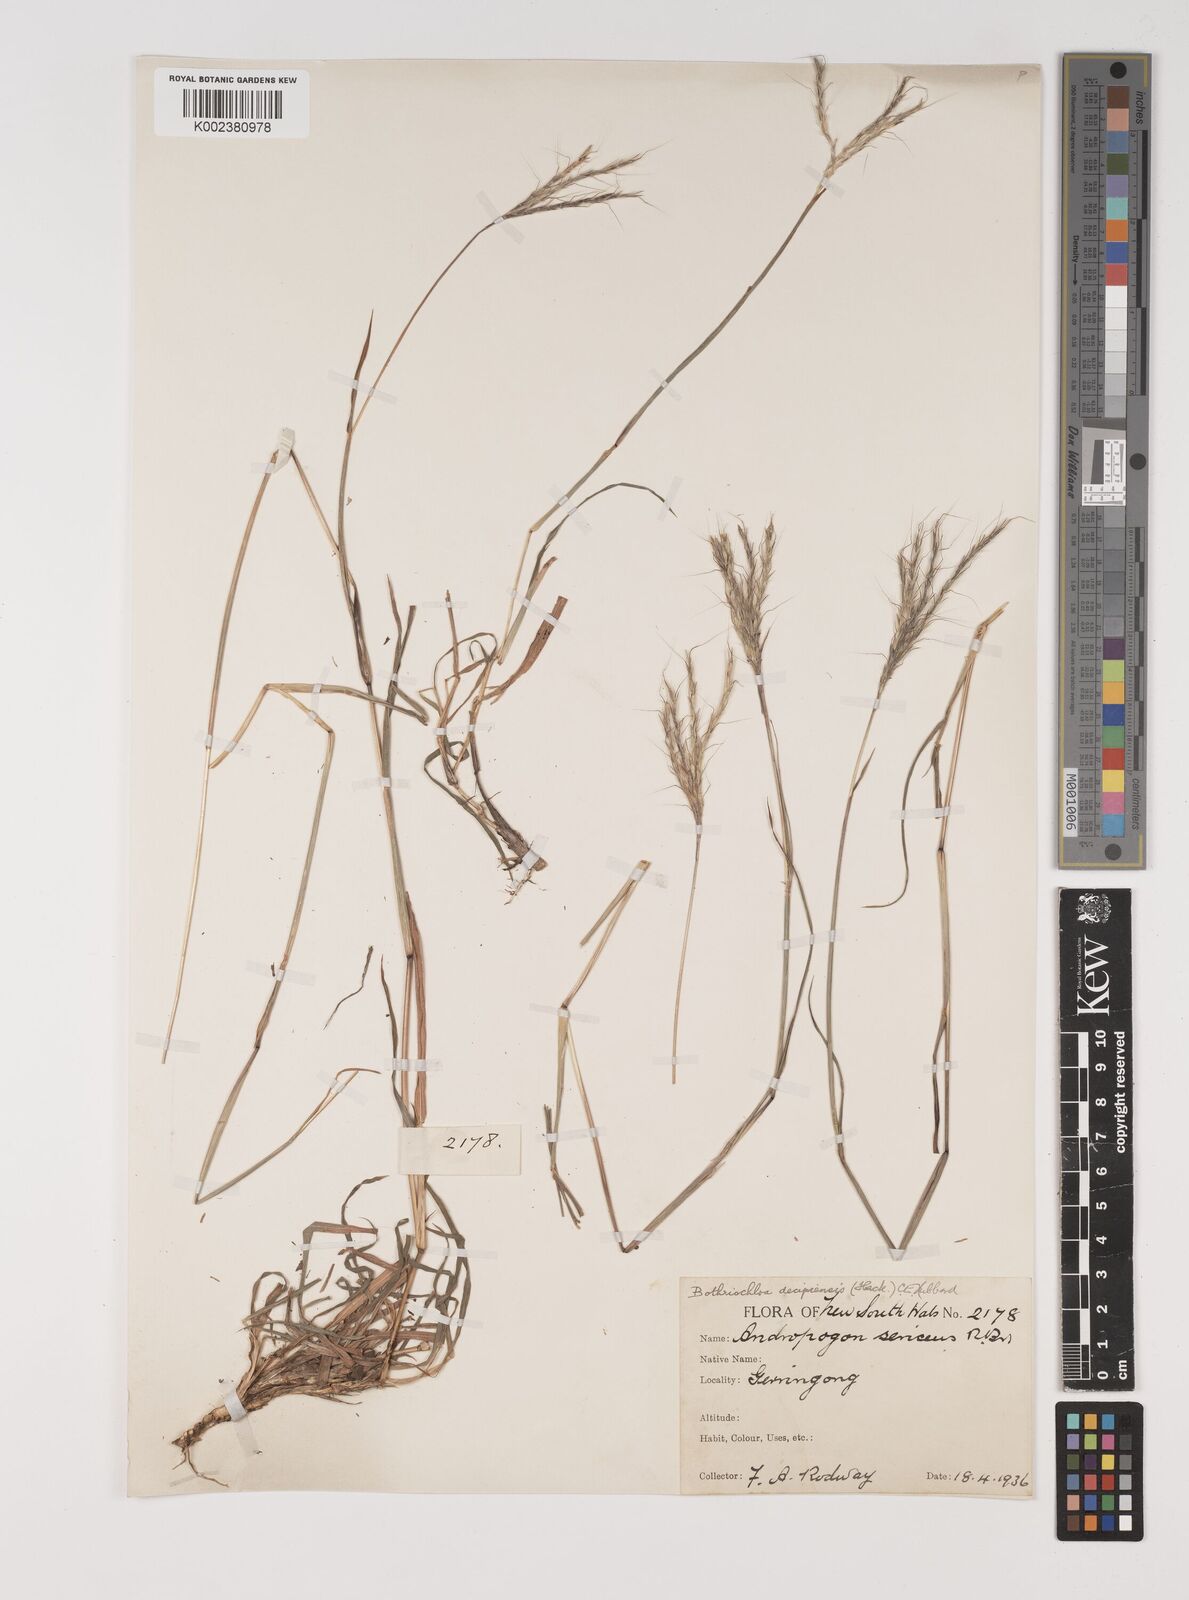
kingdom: Plantae
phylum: Tracheophyta
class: Liliopsida
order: Poales
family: Poaceae
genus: Bothriochloa
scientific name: Bothriochloa decipiens
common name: Pitted-bluegrass
